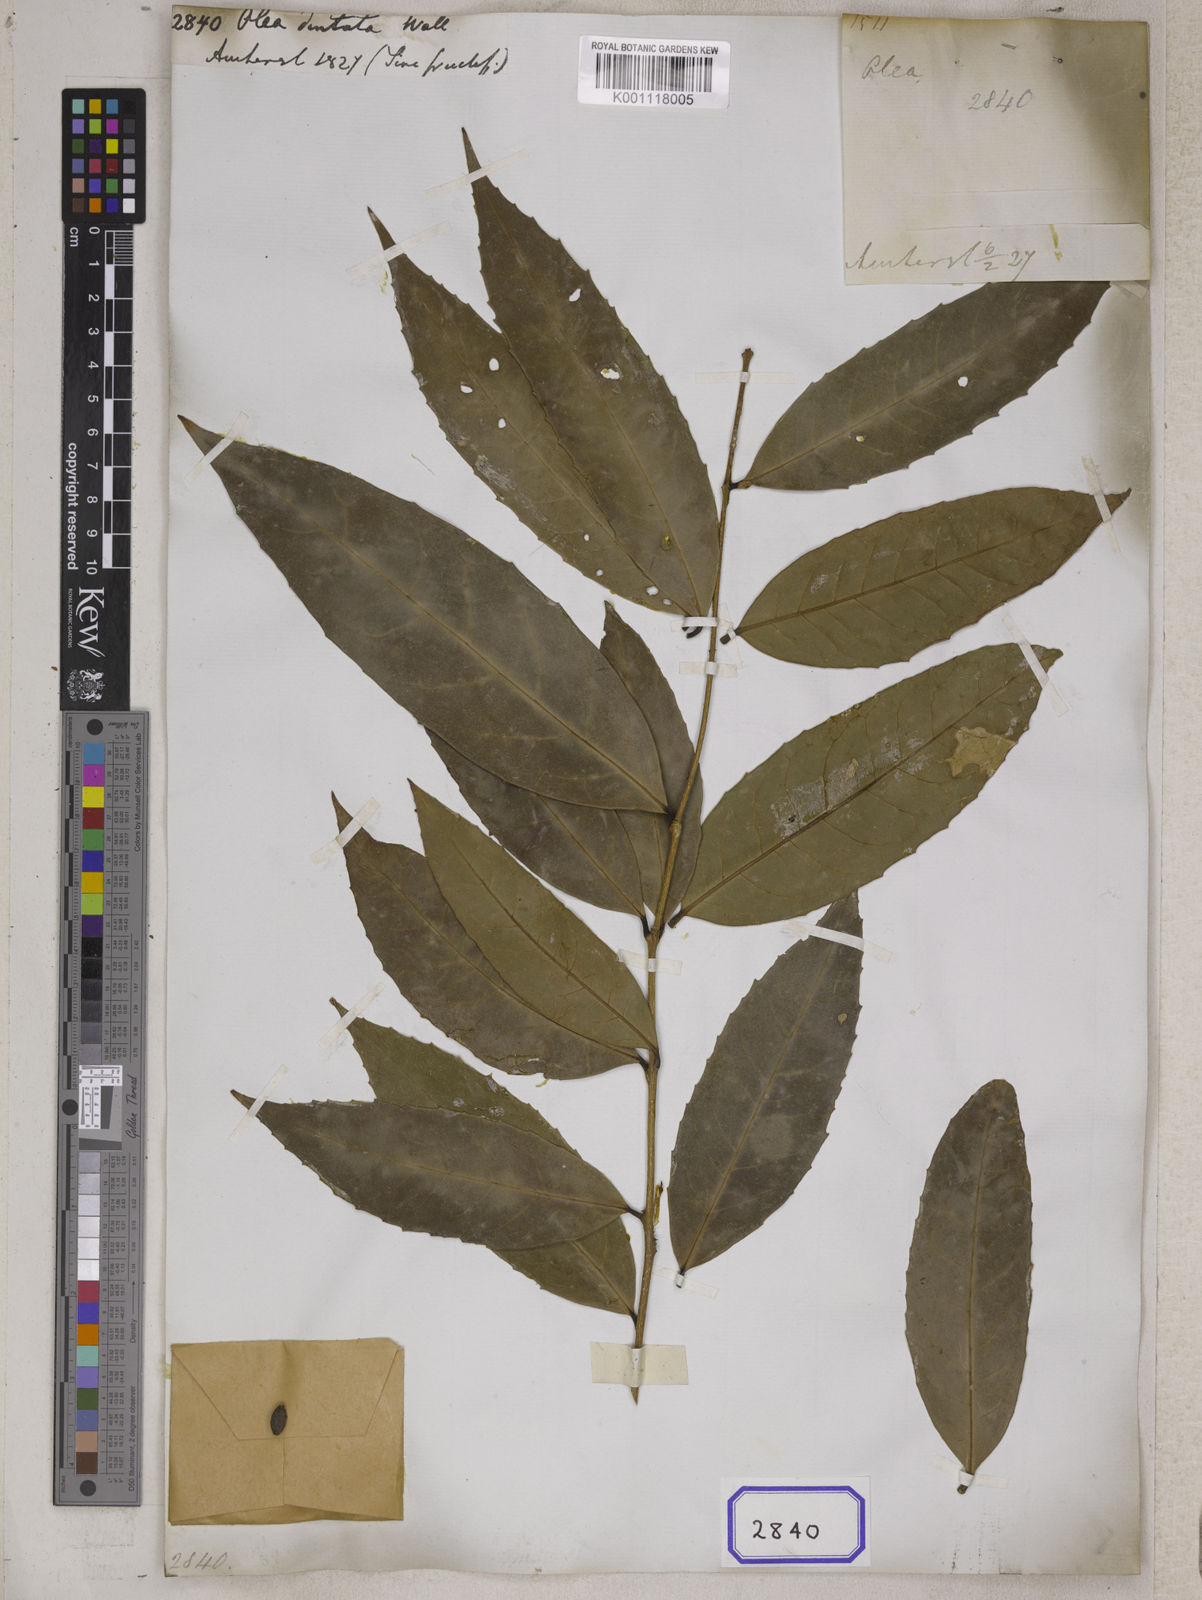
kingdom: Plantae
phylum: Tracheophyta
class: Magnoliopsida
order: Lamiales
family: Oleaceae
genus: Olea
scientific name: Olea
